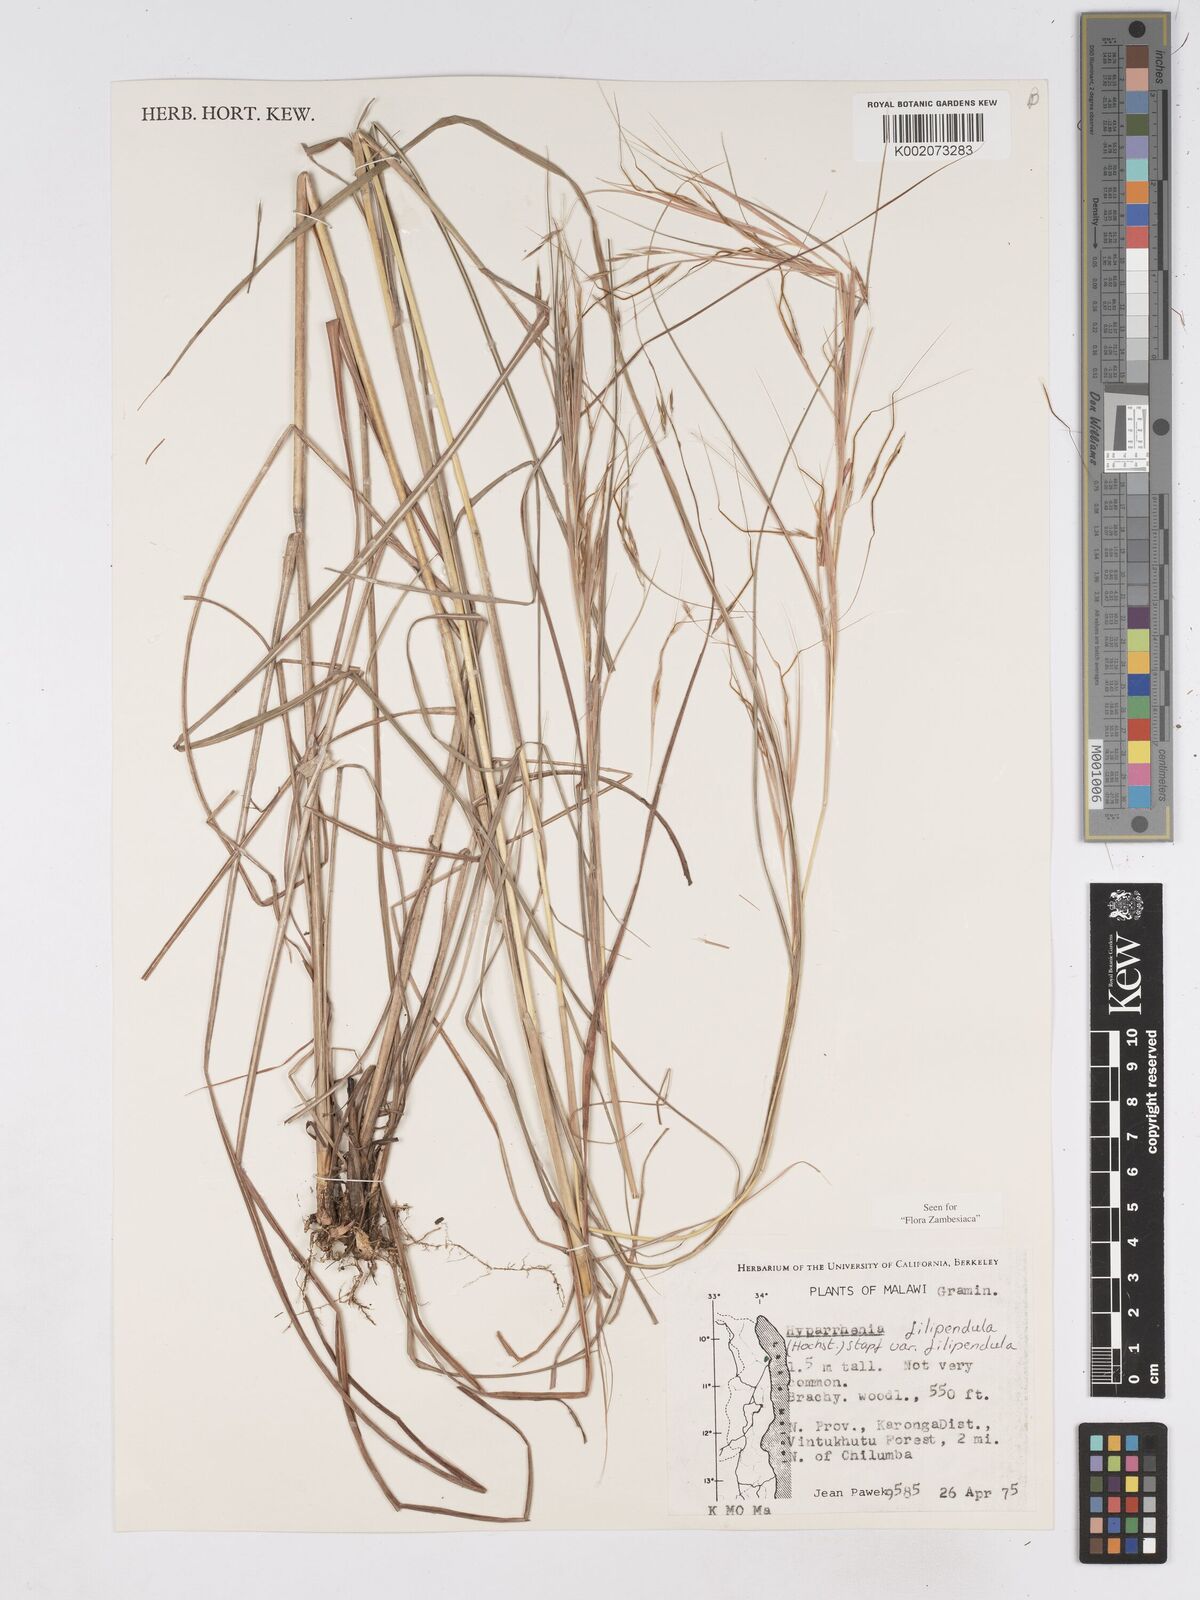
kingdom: Plantae
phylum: Tracheophyta
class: Liliopsida
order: Poales
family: Poaceae
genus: Hyparrhenia
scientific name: Hyparrhenia filipendula
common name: Tambookie grass
